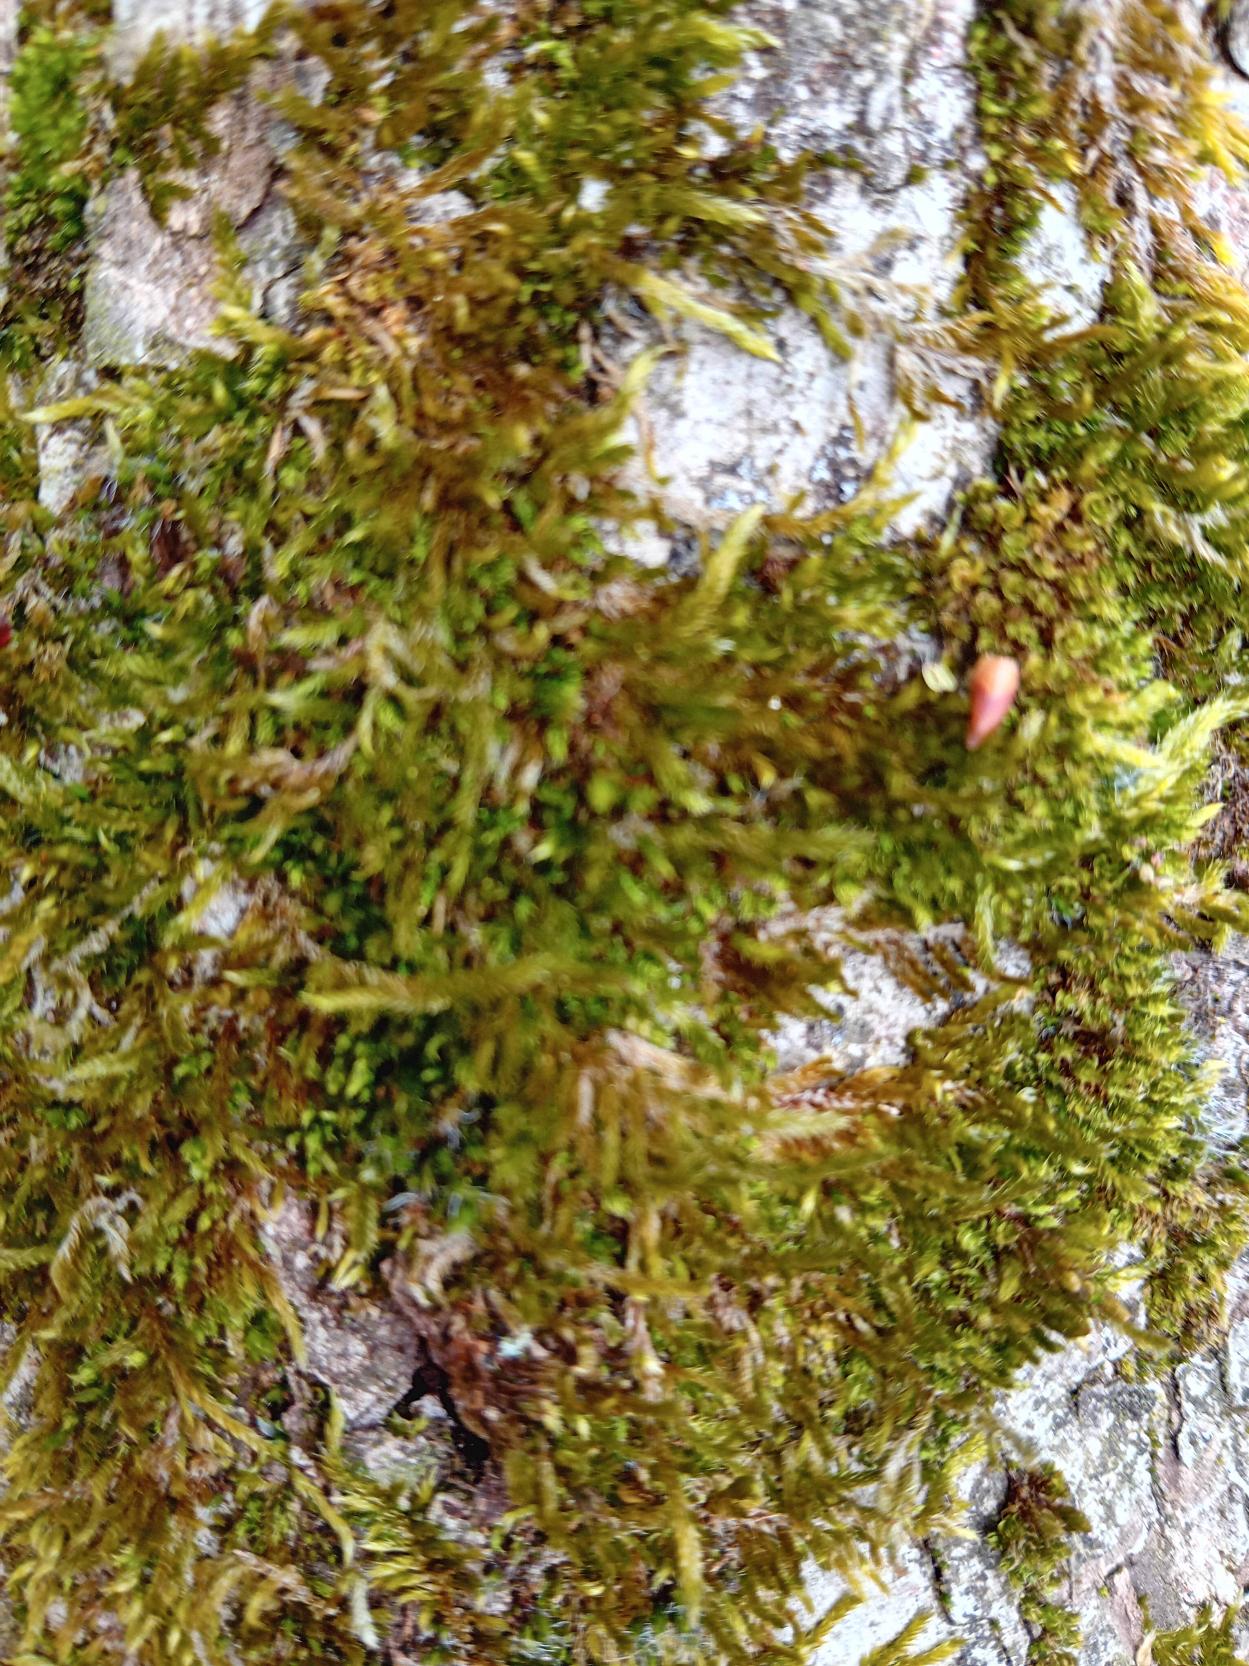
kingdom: Plantae
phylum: Bryophyta
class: Bryopsida
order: Hypnales
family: Hypnaceae
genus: Hypnum
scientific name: Hypnum cupressiforme
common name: Almindelig cypresmos
